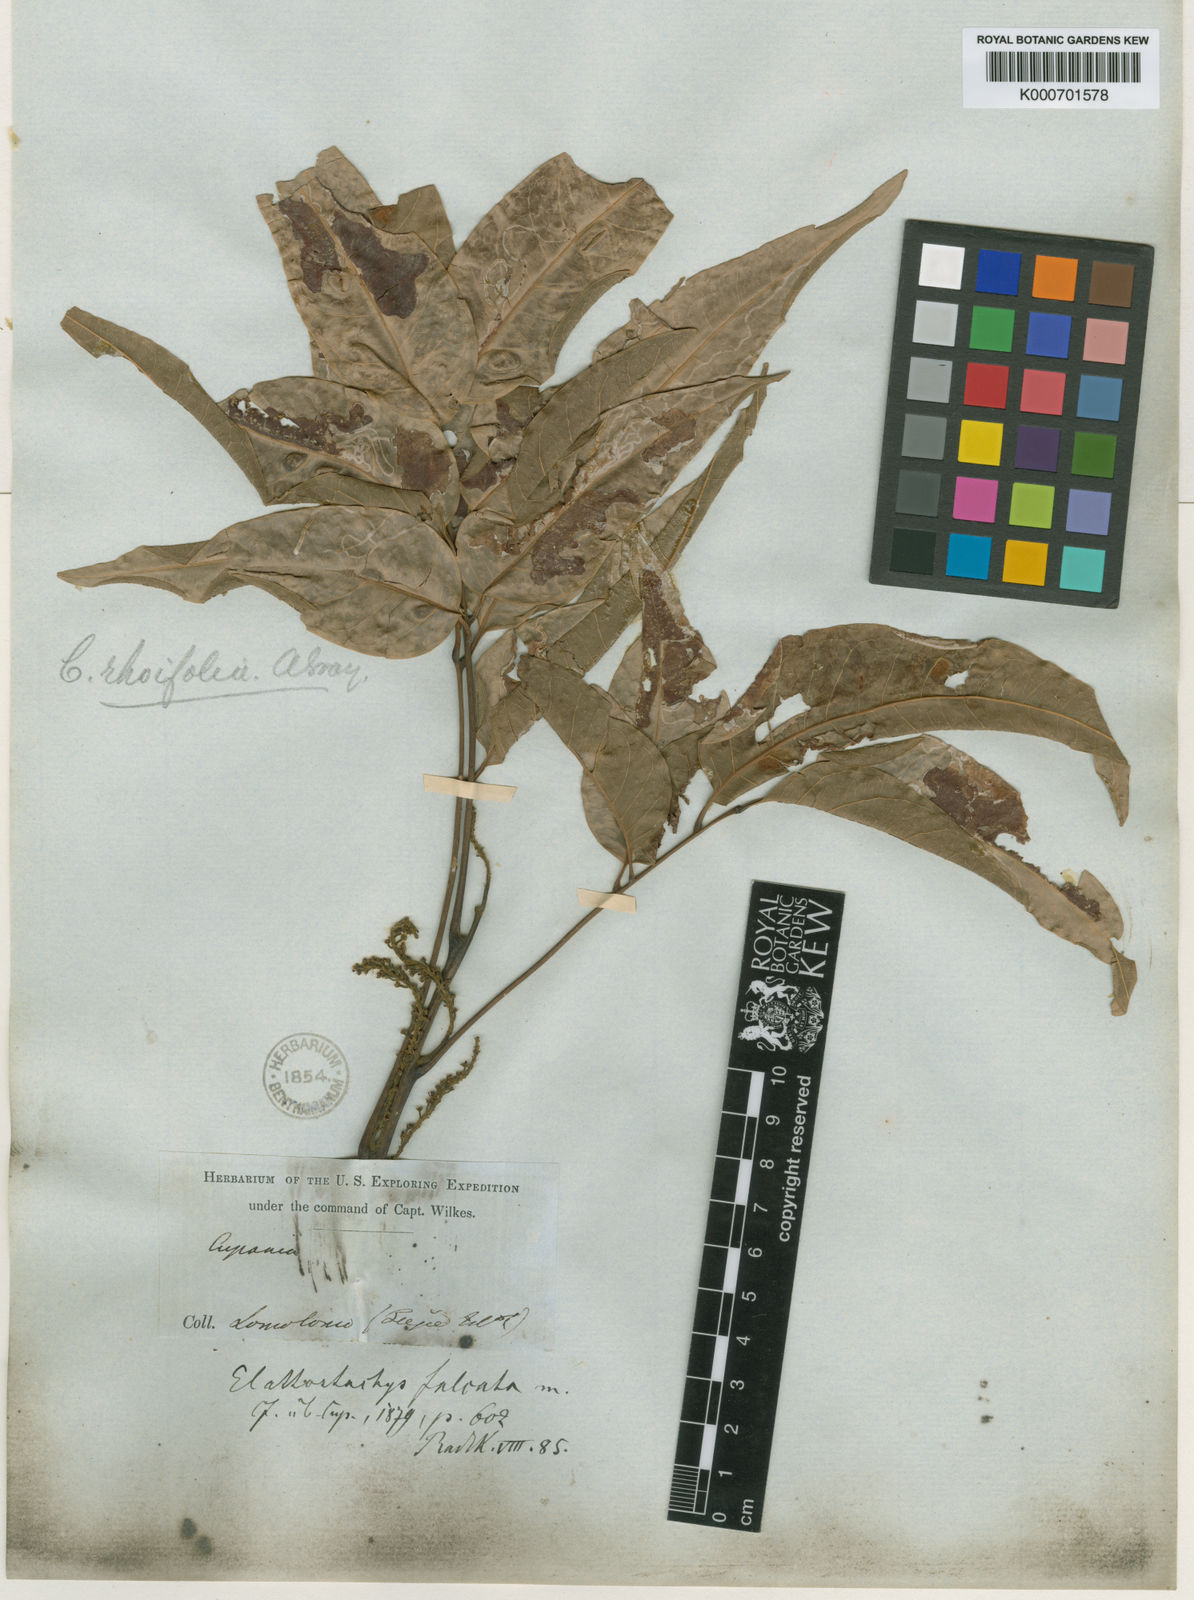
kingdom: Plantae
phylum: Tracheophyta
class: Magnoliopsida
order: Sapindales
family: Sapindaceae
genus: Elattostachys
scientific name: Elattostachys apetala
